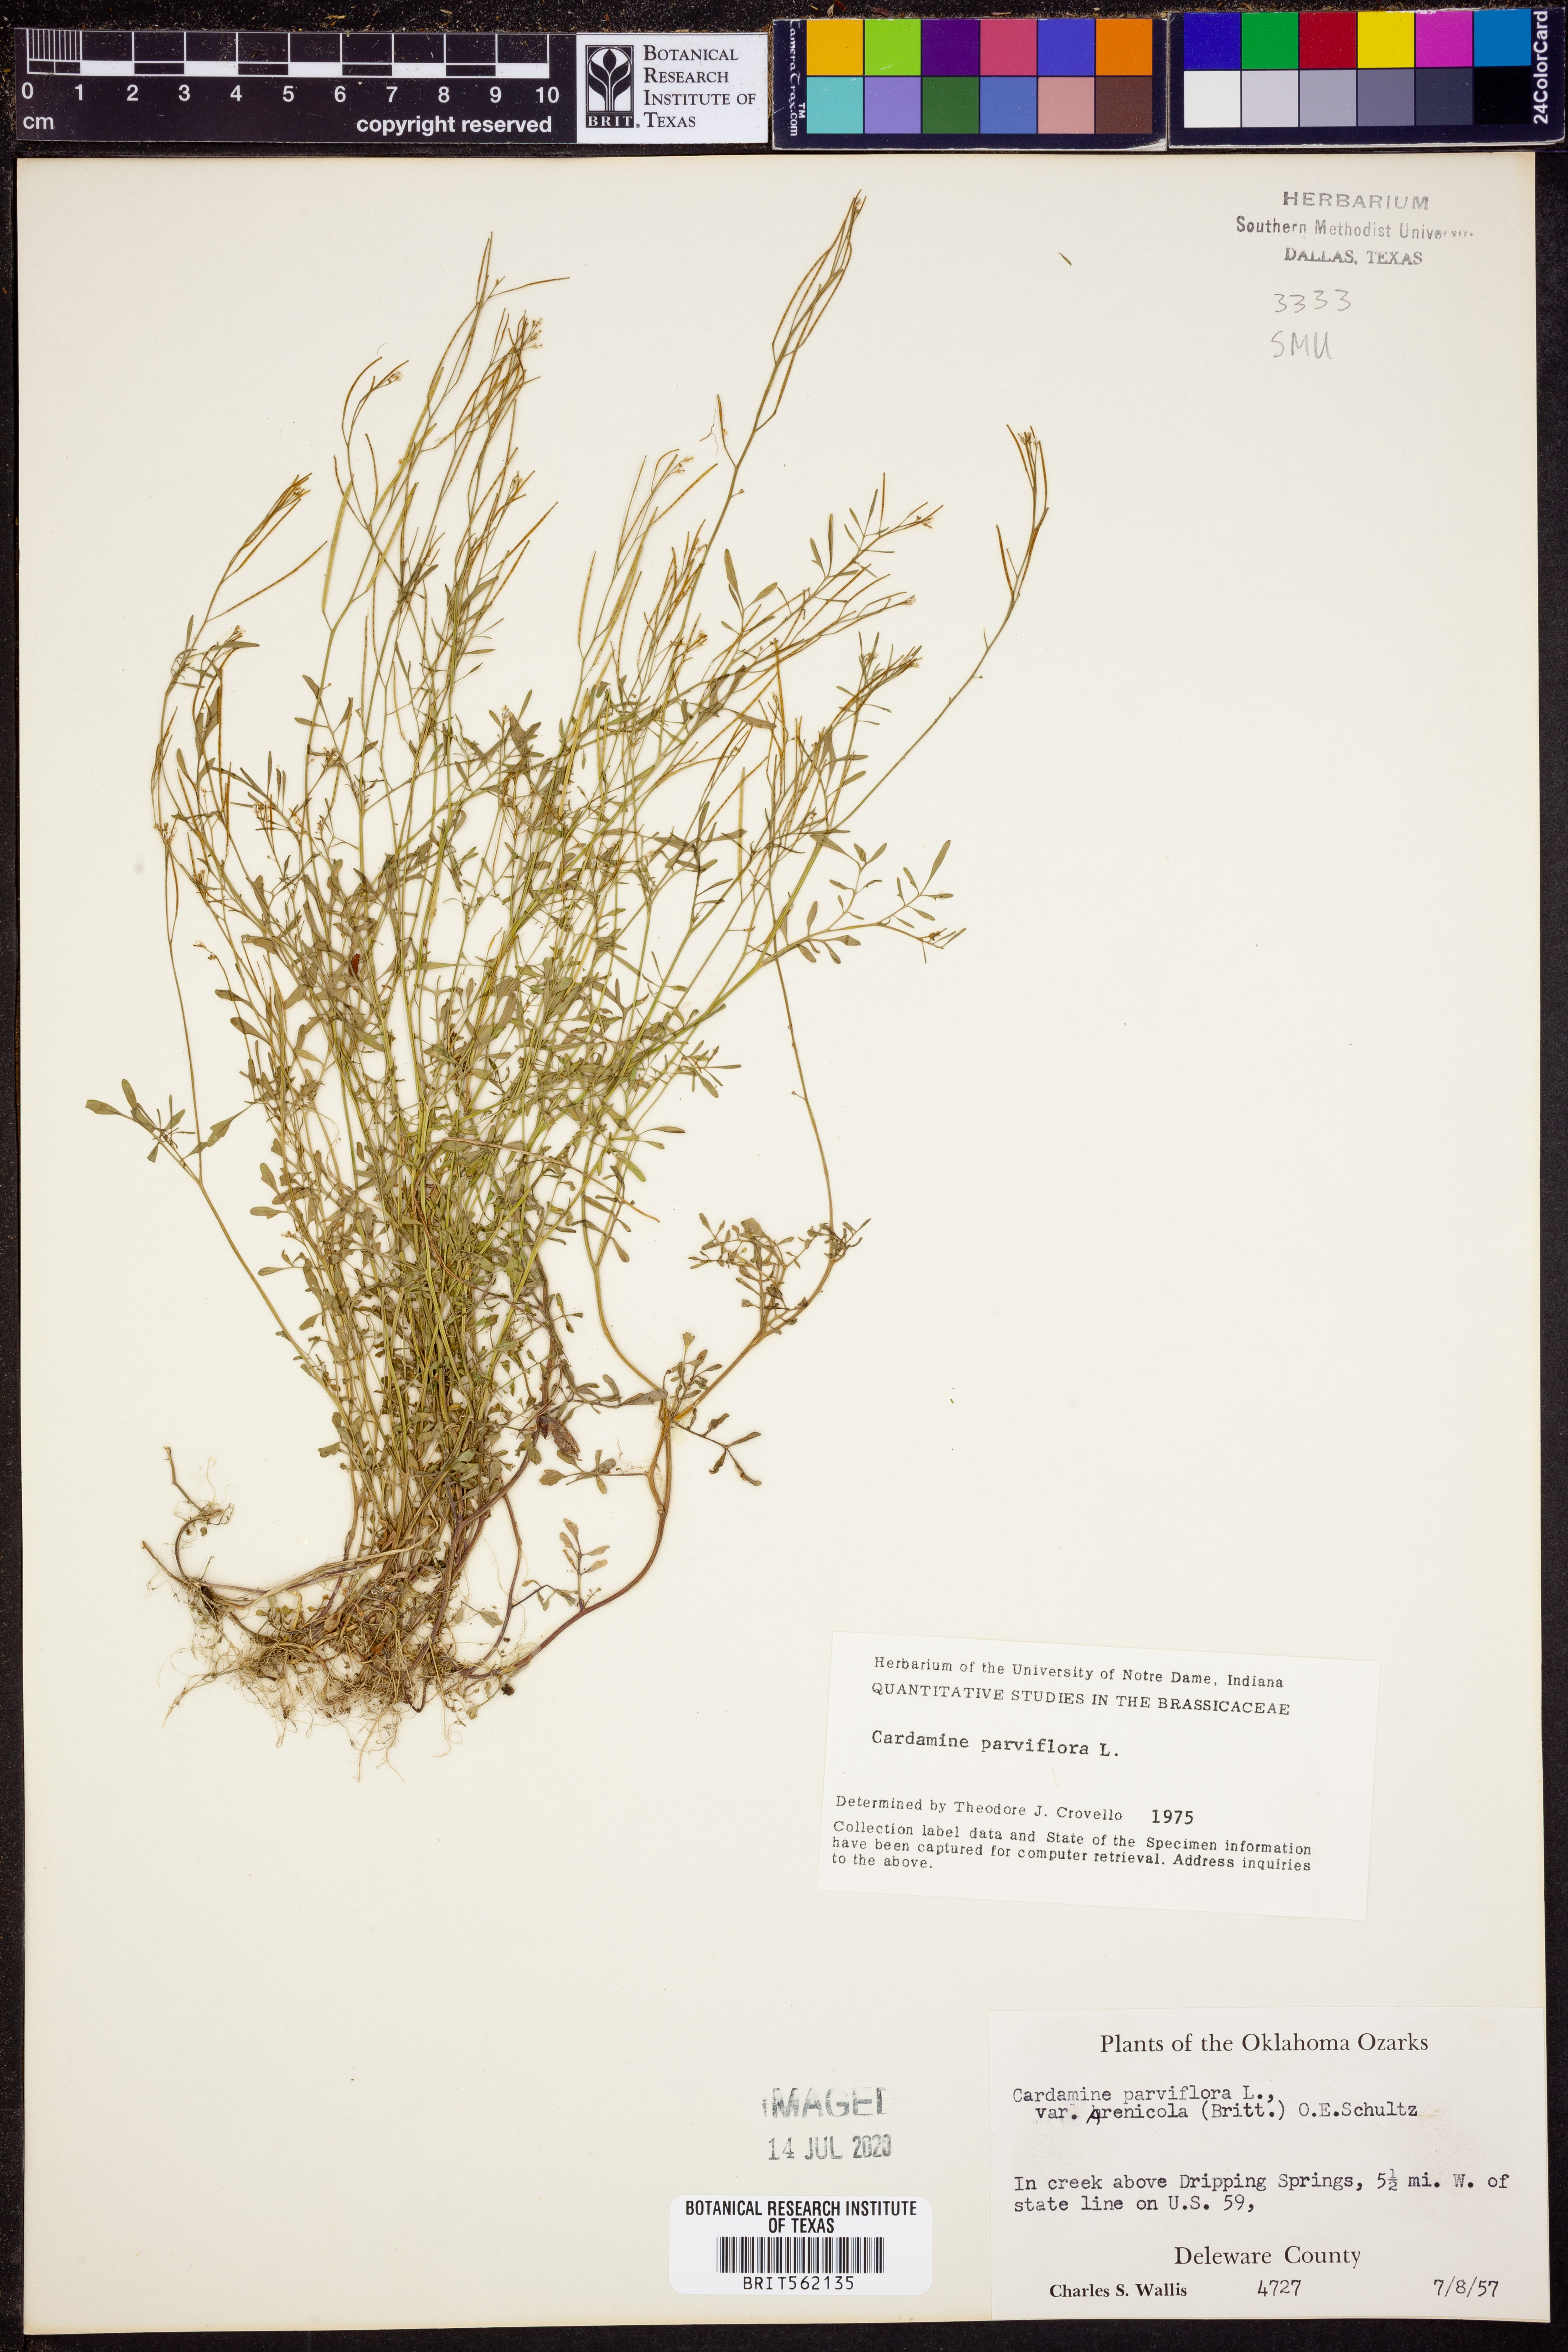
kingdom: Plantae
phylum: Tracheophyta
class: Magnoliopsida
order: Brassicales
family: Brassicaceae
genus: Cardamine
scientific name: Cardamine parviflora
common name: Sand bittercress
